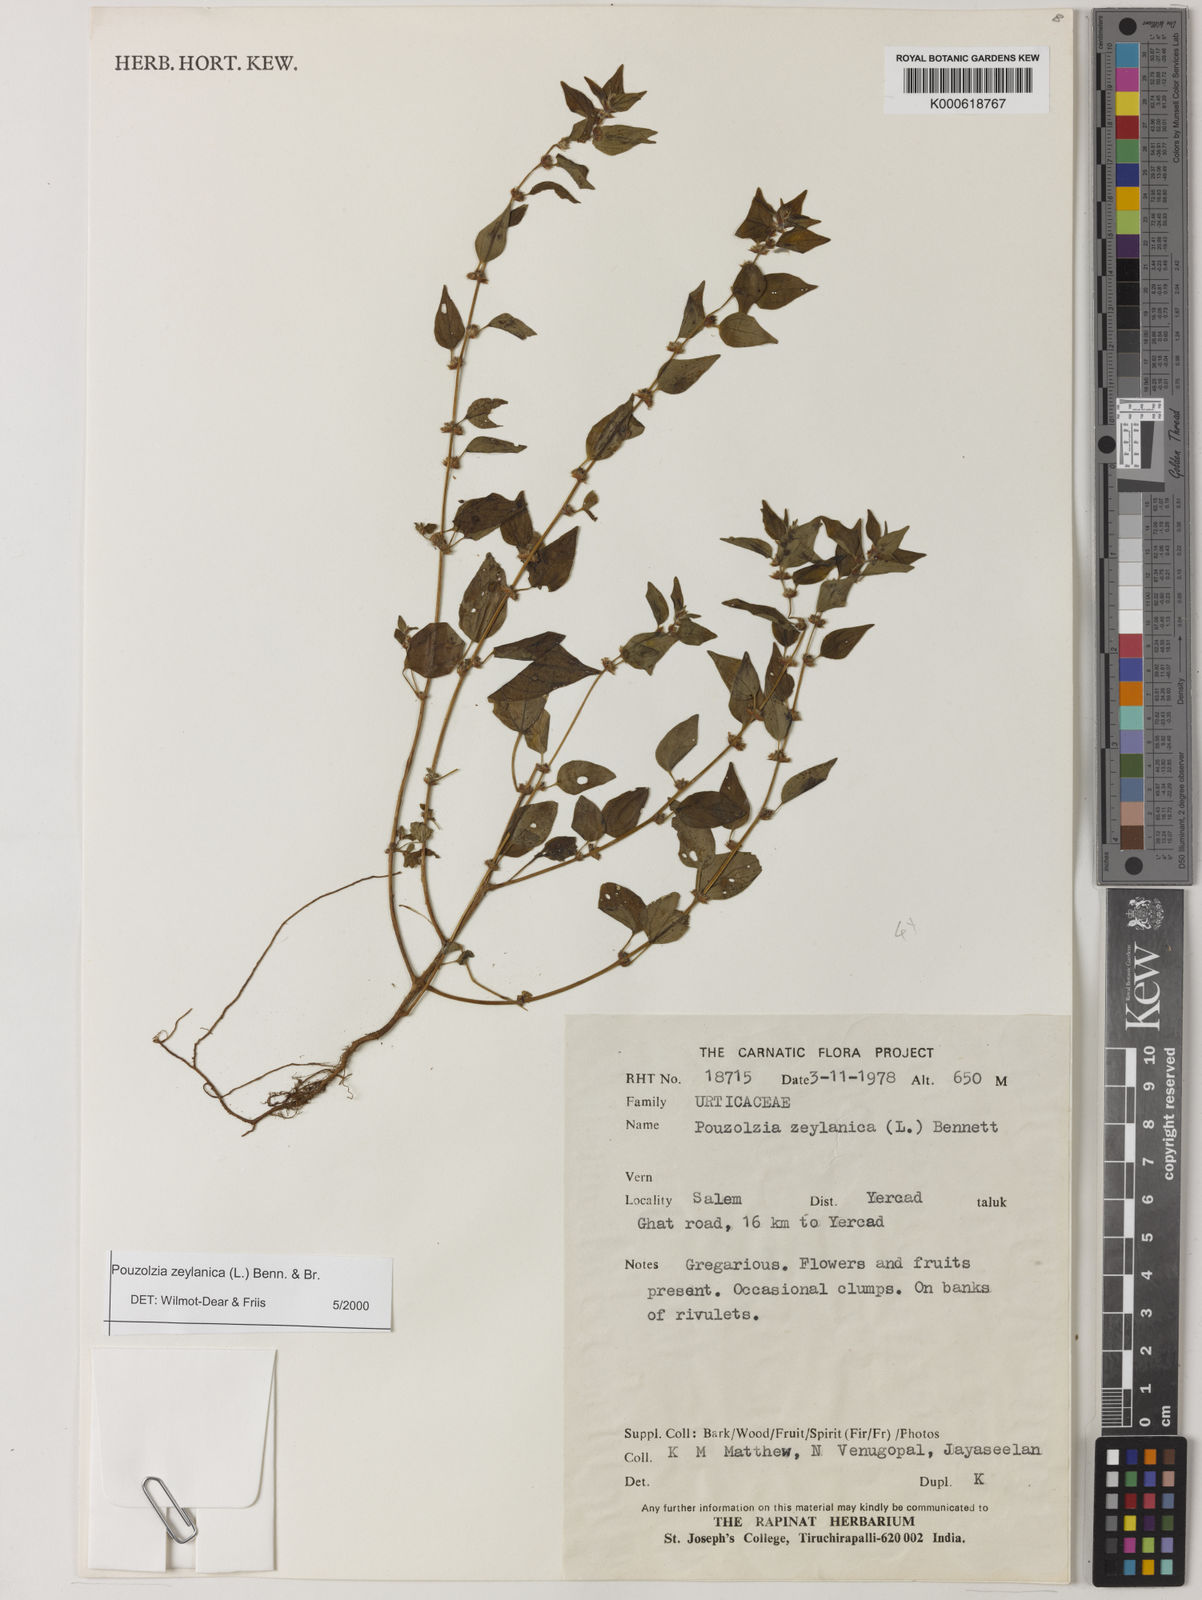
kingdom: Plantae
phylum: Tracheophyta
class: Magnoliopsida
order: Rosales
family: Urticaceae
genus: Pouzolzia
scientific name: Pouzolzia zeylanica
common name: Graceful pouzolzsbush
